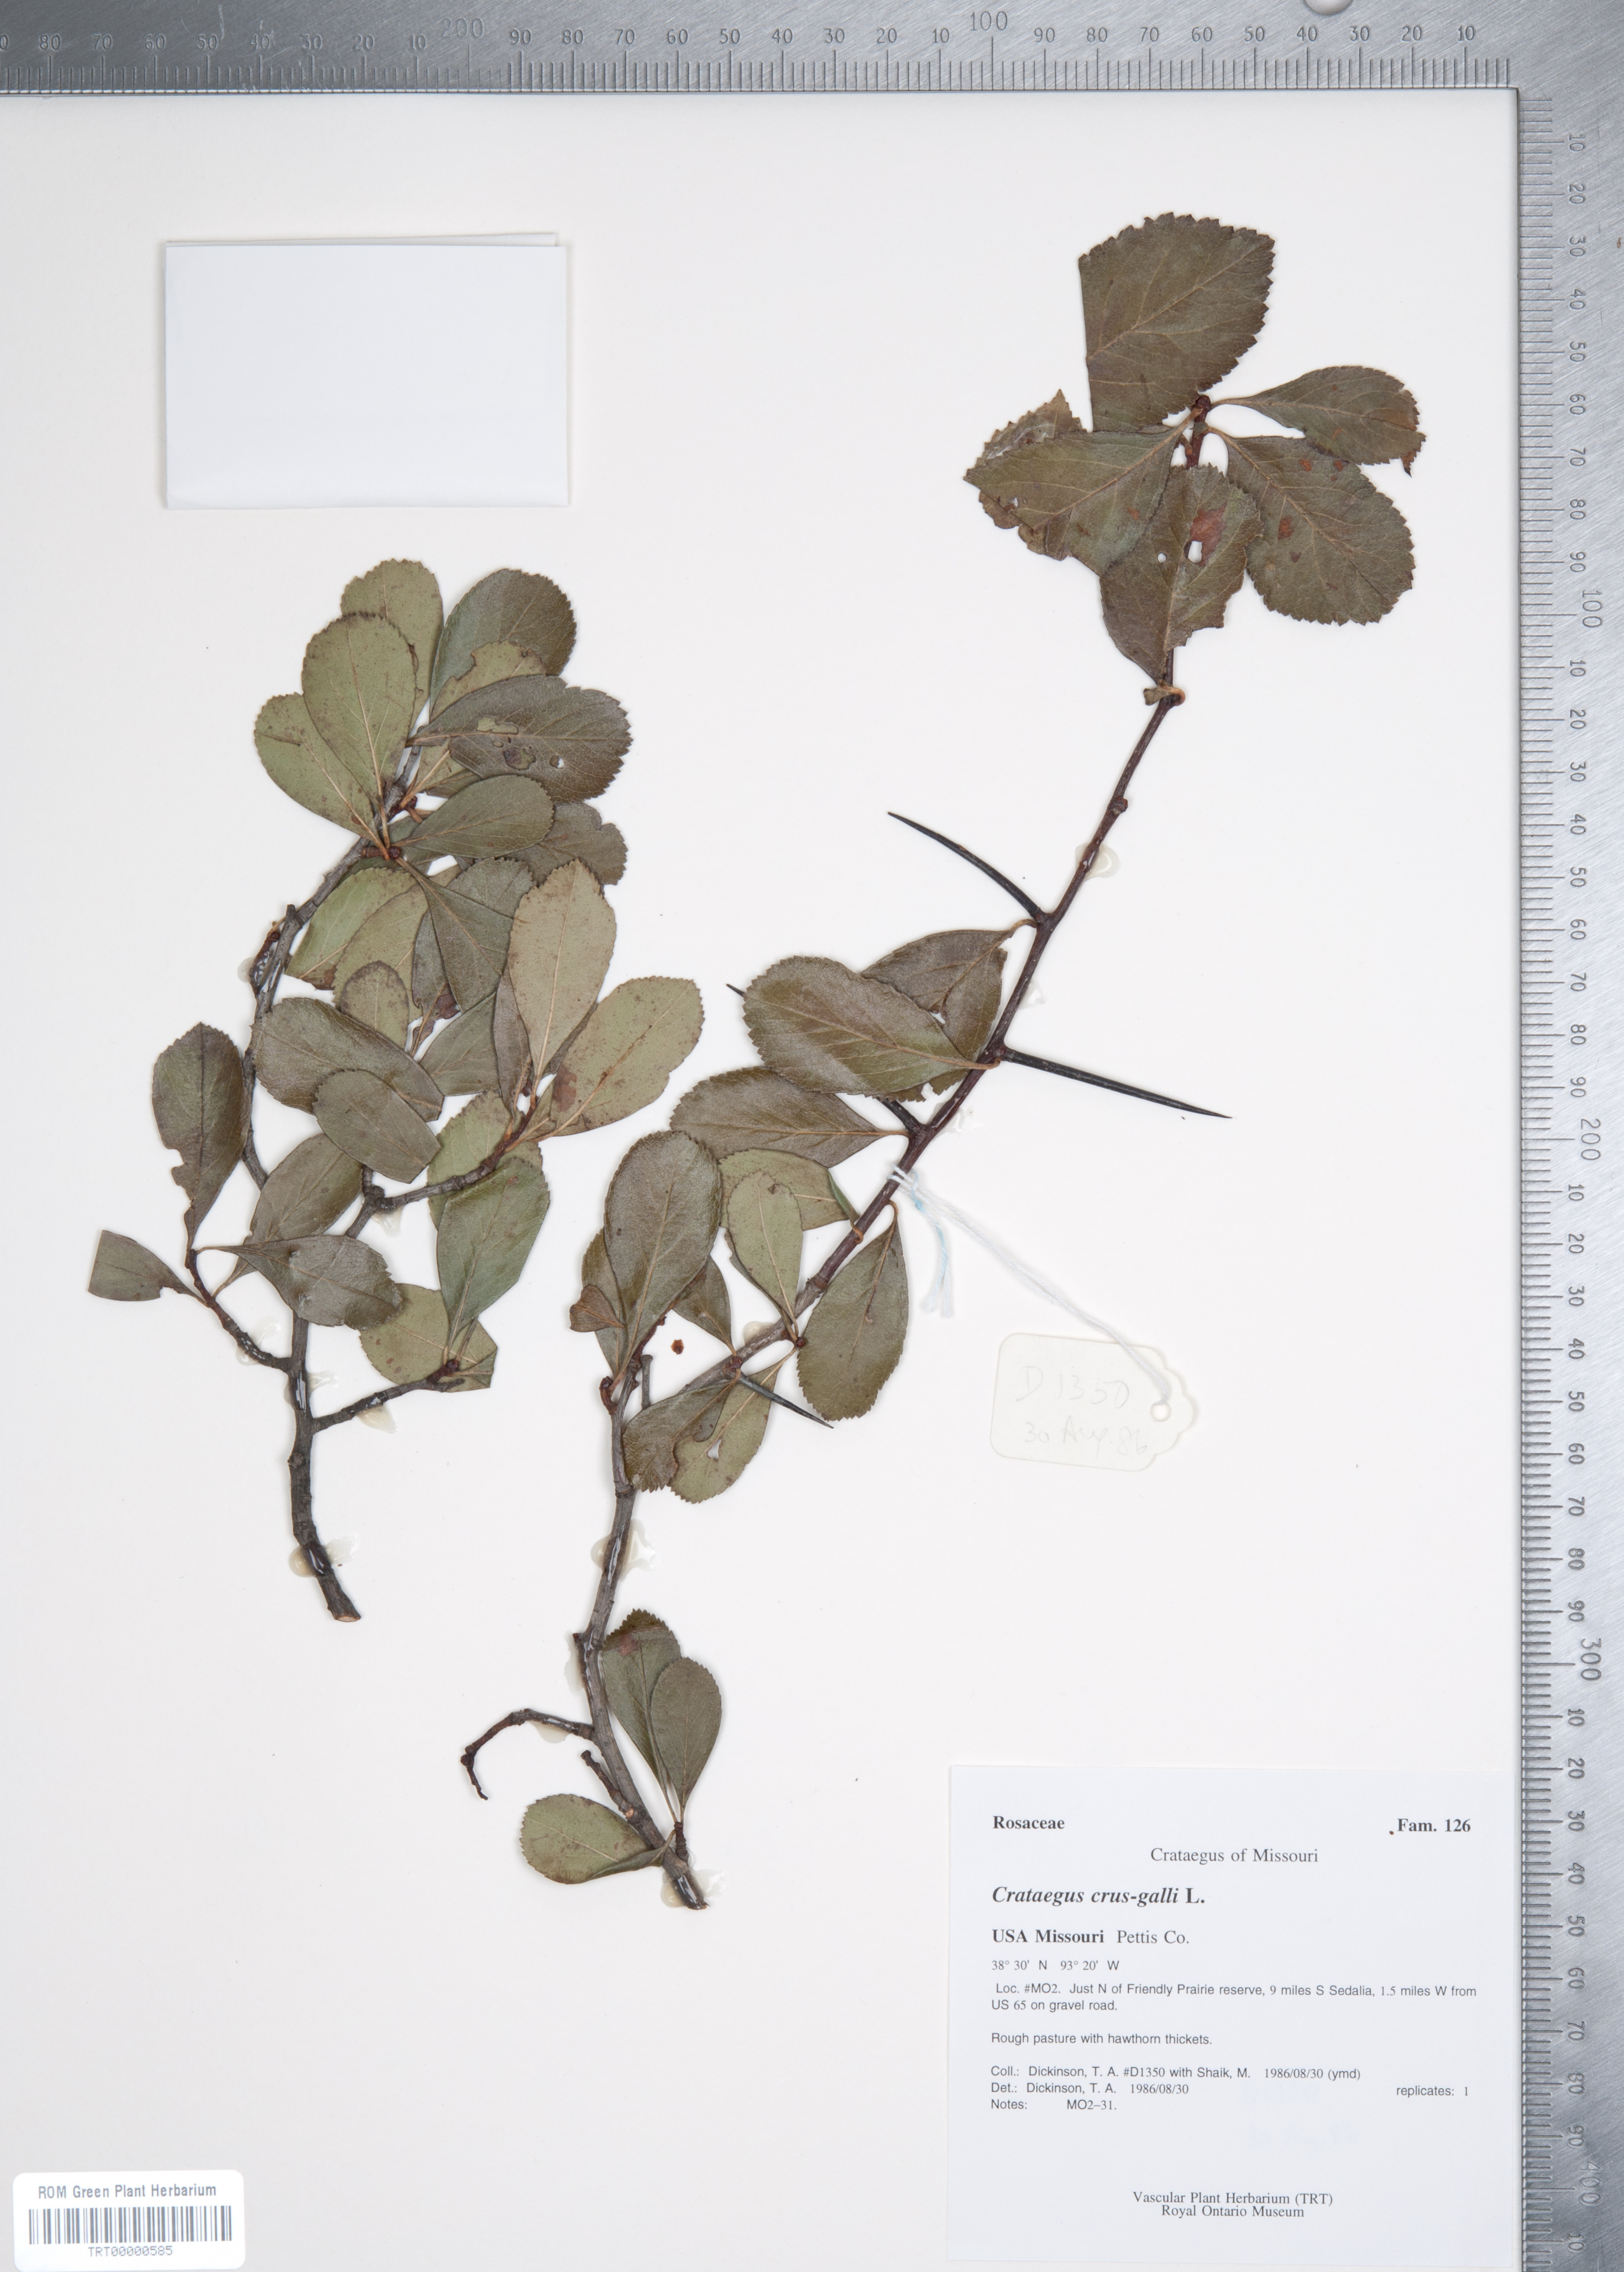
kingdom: Plantae
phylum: Tracheophyta
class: Magnoliopsida
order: Rosales
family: Rosaceae
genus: Crataegus
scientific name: Crataegus crus-galli
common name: Cockspurthorn
